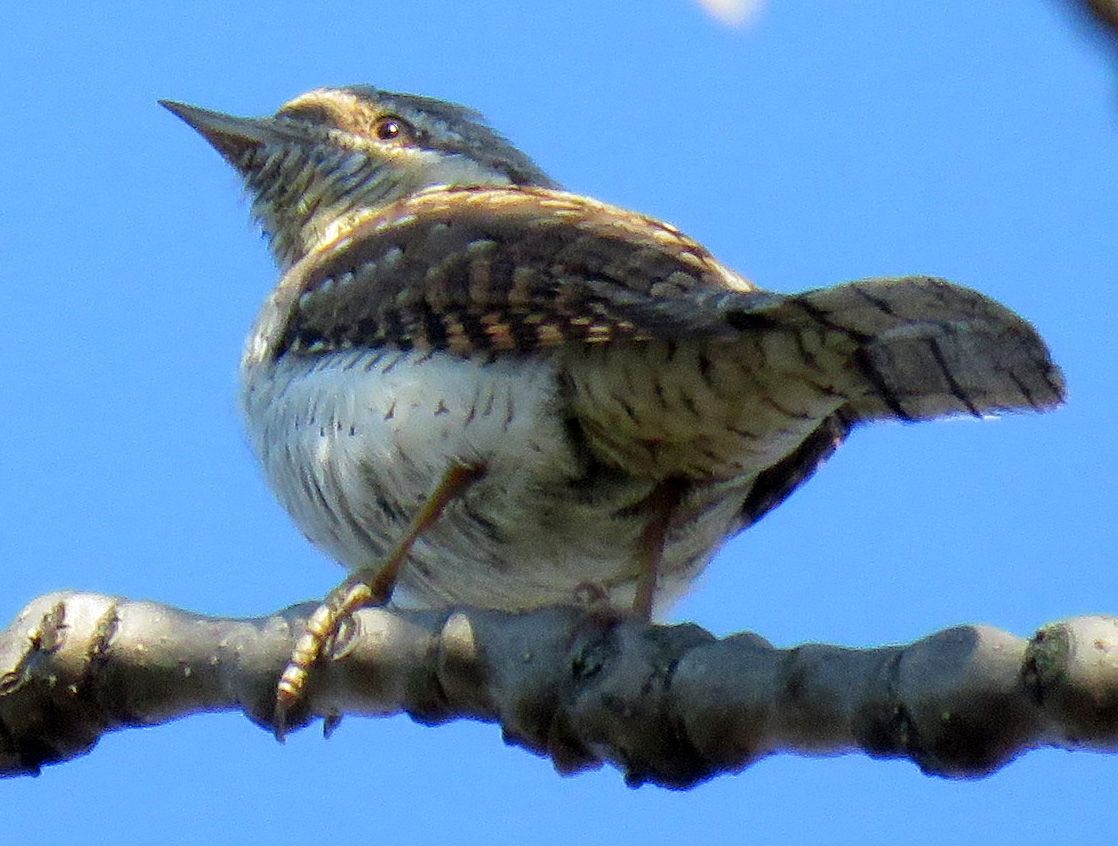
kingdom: Animalia
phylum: Chordata
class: Aves
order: Piciformes
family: Picidae
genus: Jynx
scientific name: Jynx torquilla
